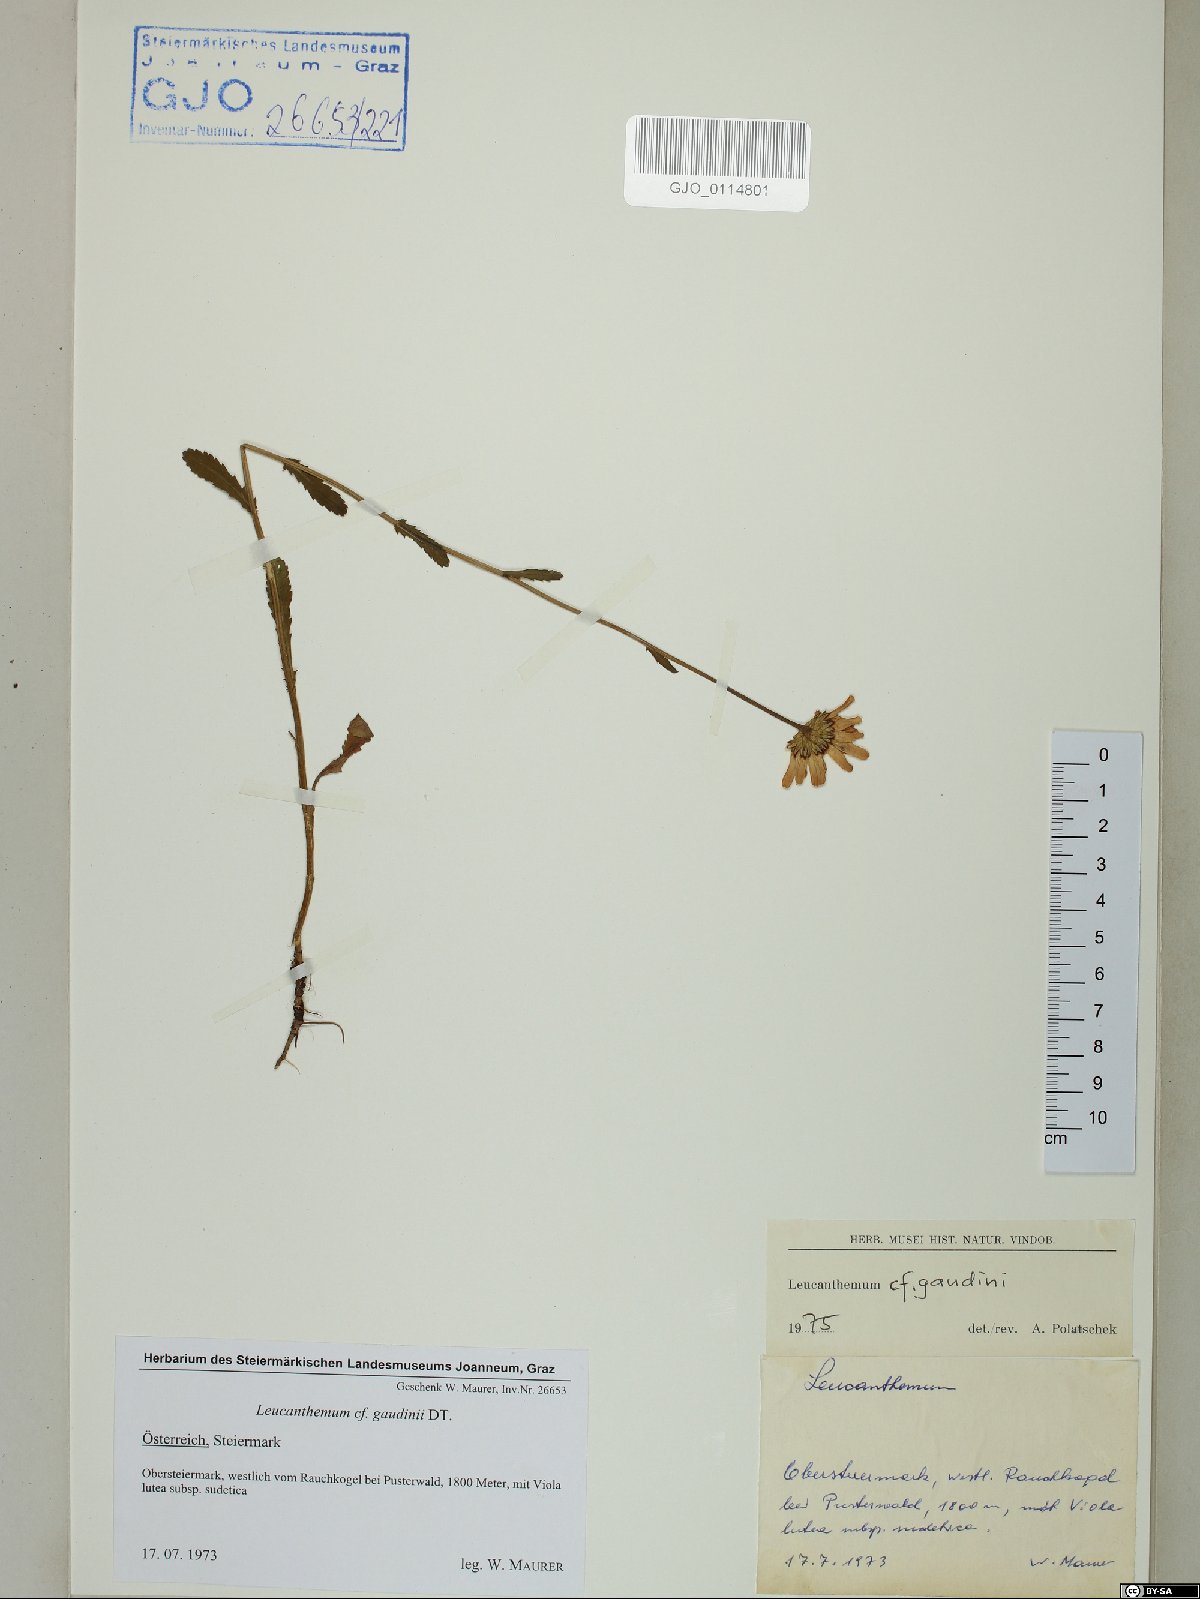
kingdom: Plantae
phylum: Tracheophyta
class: Magnoliopsida
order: Asterales
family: Asteraceae
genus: Leucanthemum
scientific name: Leucanthemum gaudinii
